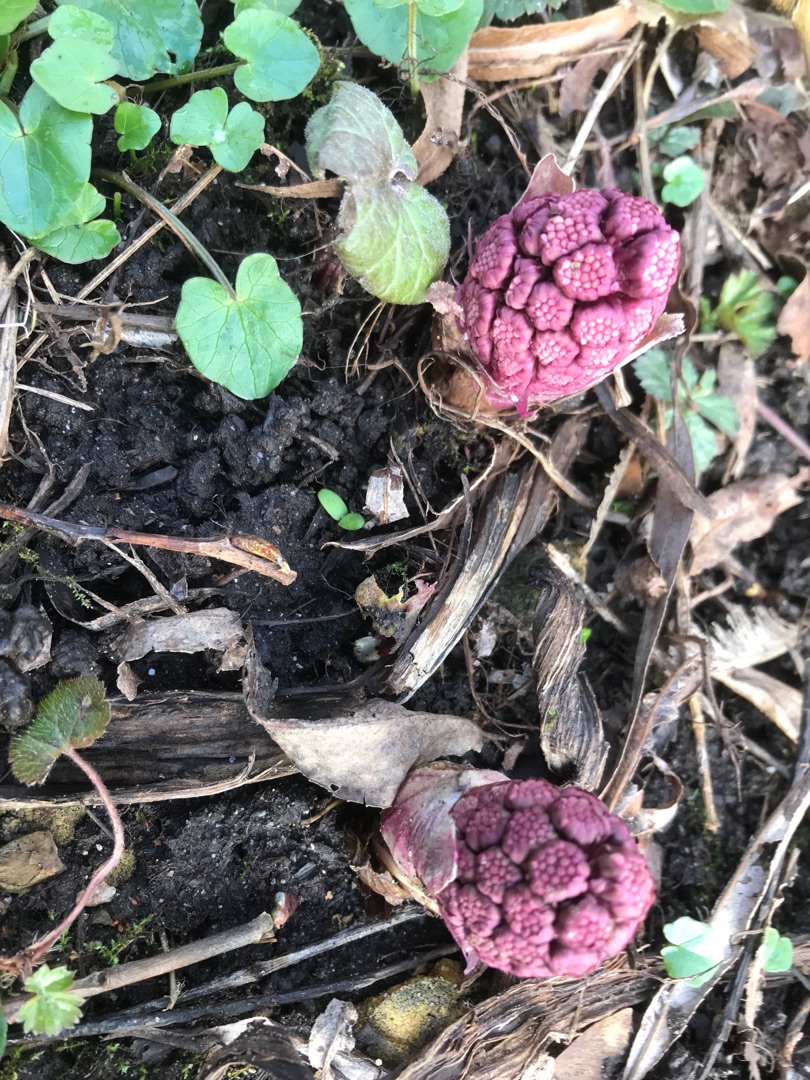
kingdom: Plantae
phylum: Tracheophyta
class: Magnoliopsida
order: Asterales
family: Asteraceae
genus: Petasites
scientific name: Petasites hybridus
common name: Rød hestehov
